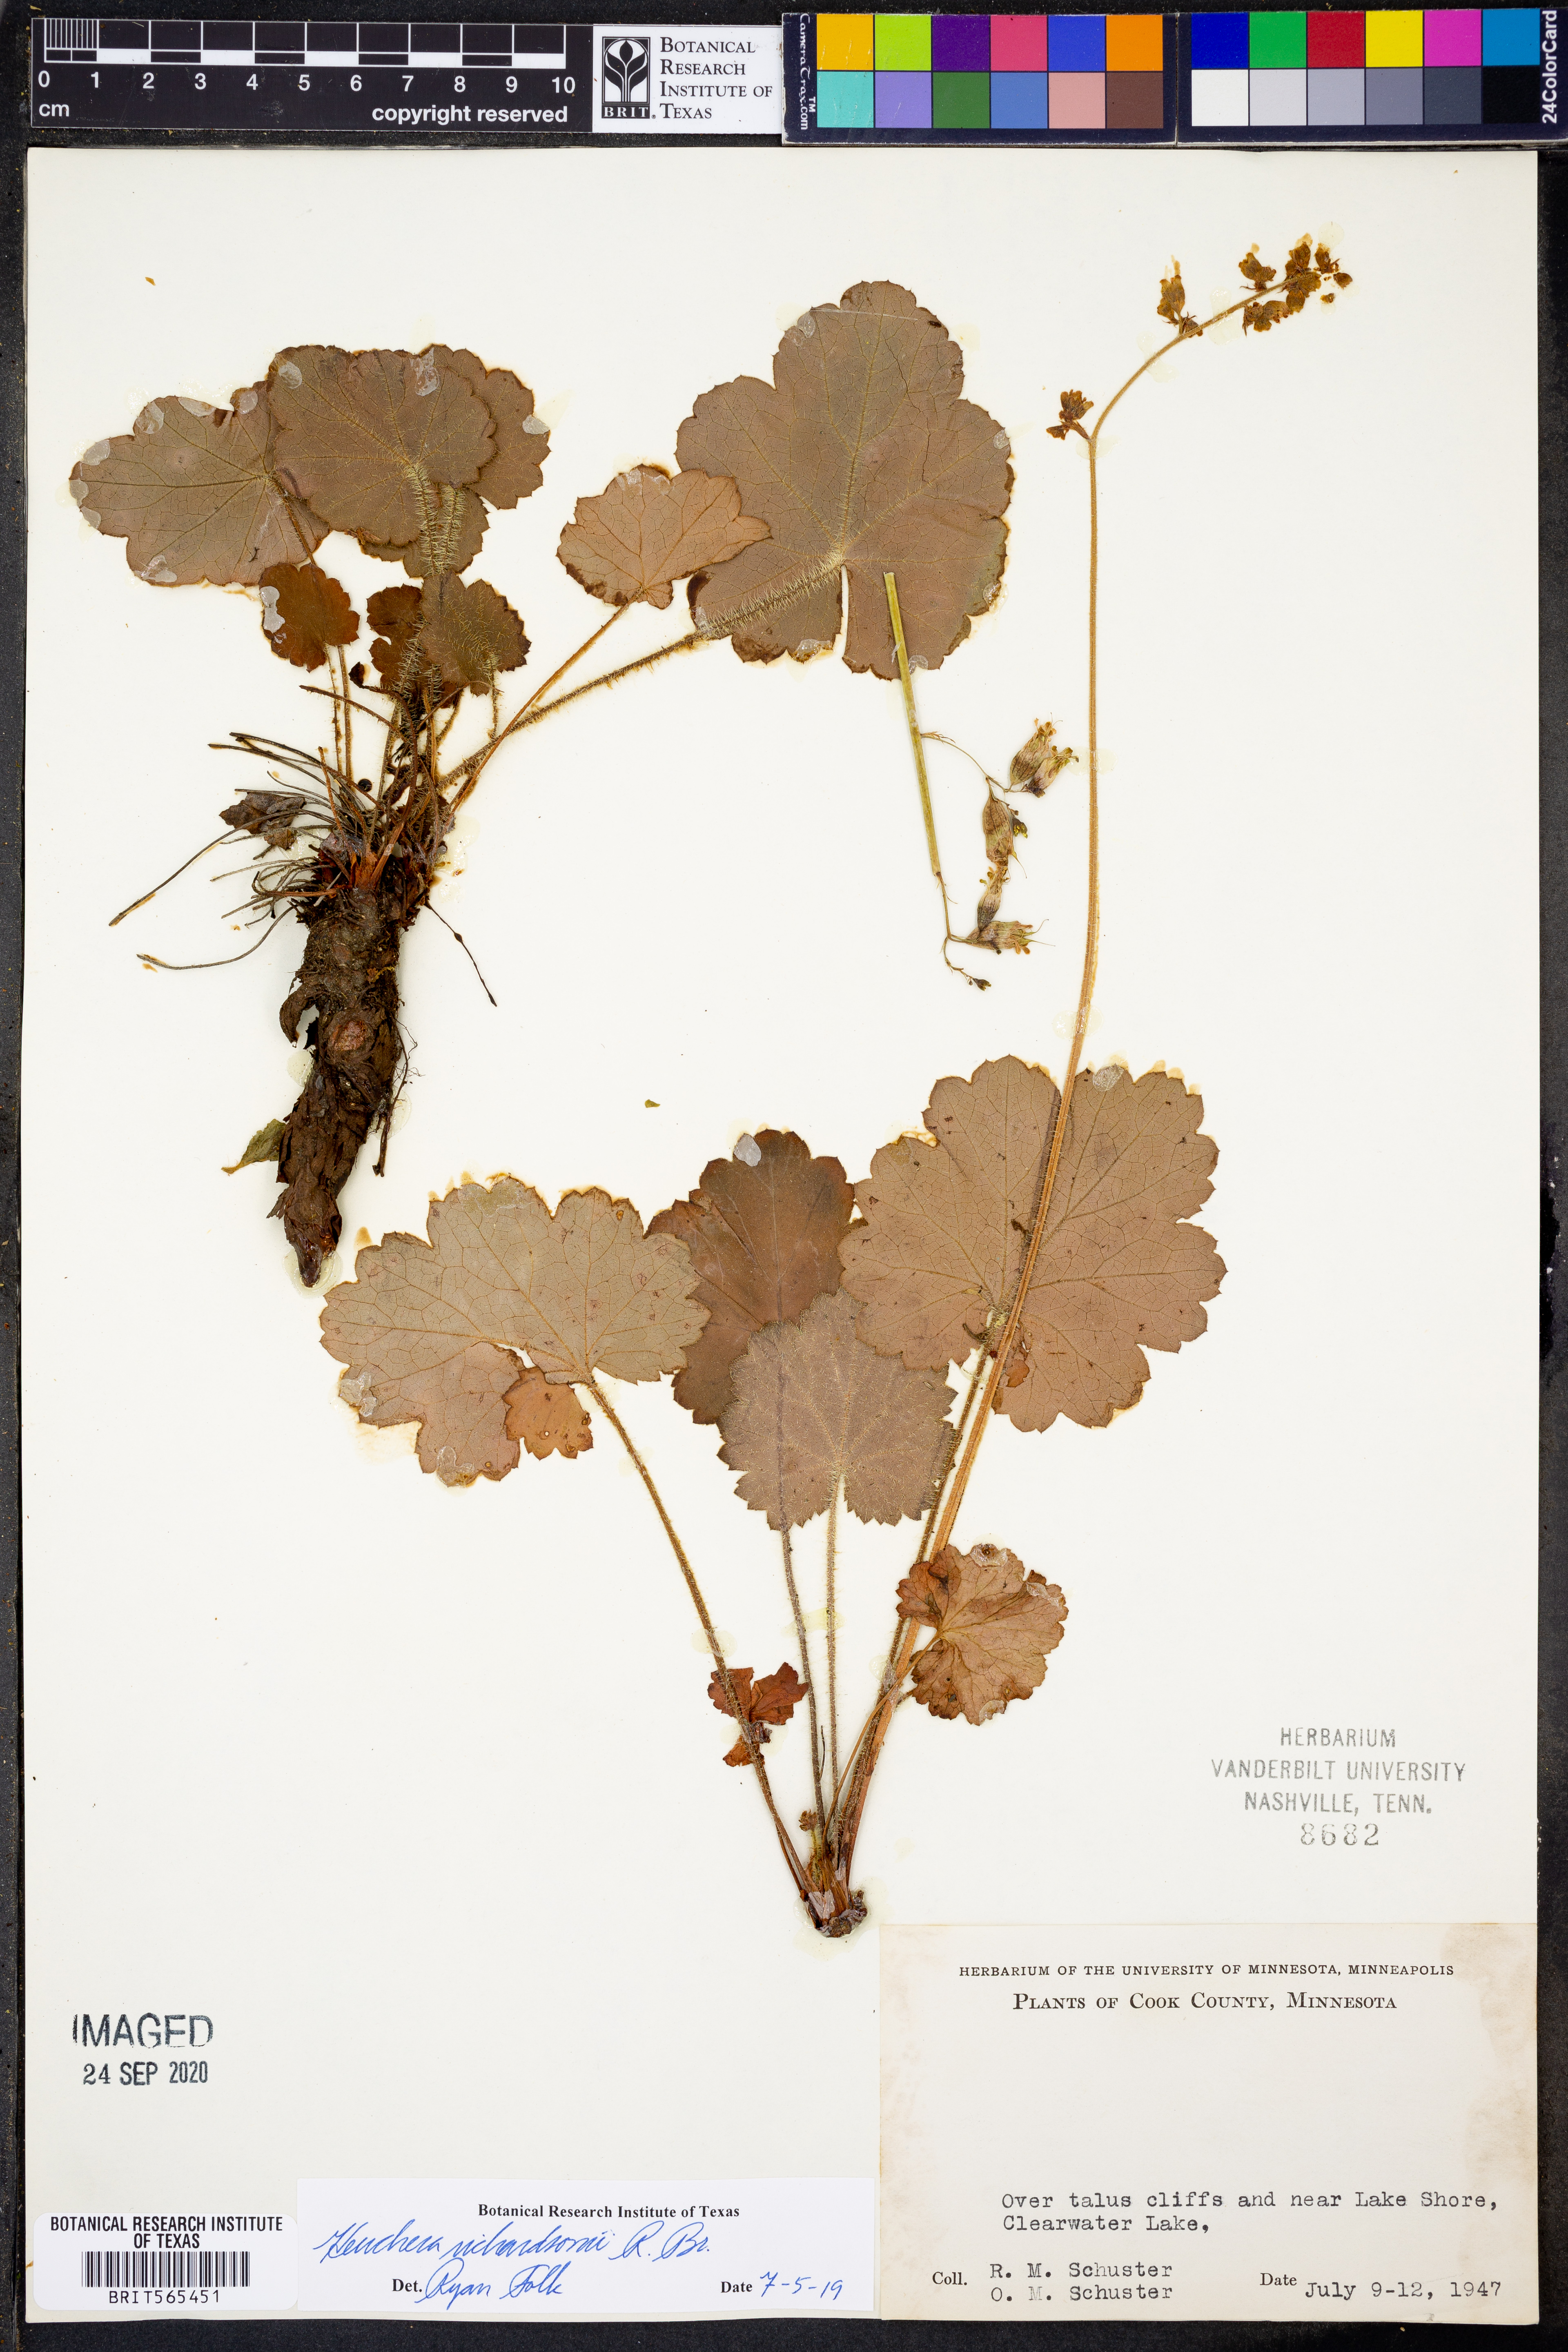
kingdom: Plantae
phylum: Tracheophyta
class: Magnoliopsida
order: Saxifragales
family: Saxifragaceae
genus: Heuchera
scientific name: Heuchera richardsonii
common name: Richardson's alumroot
